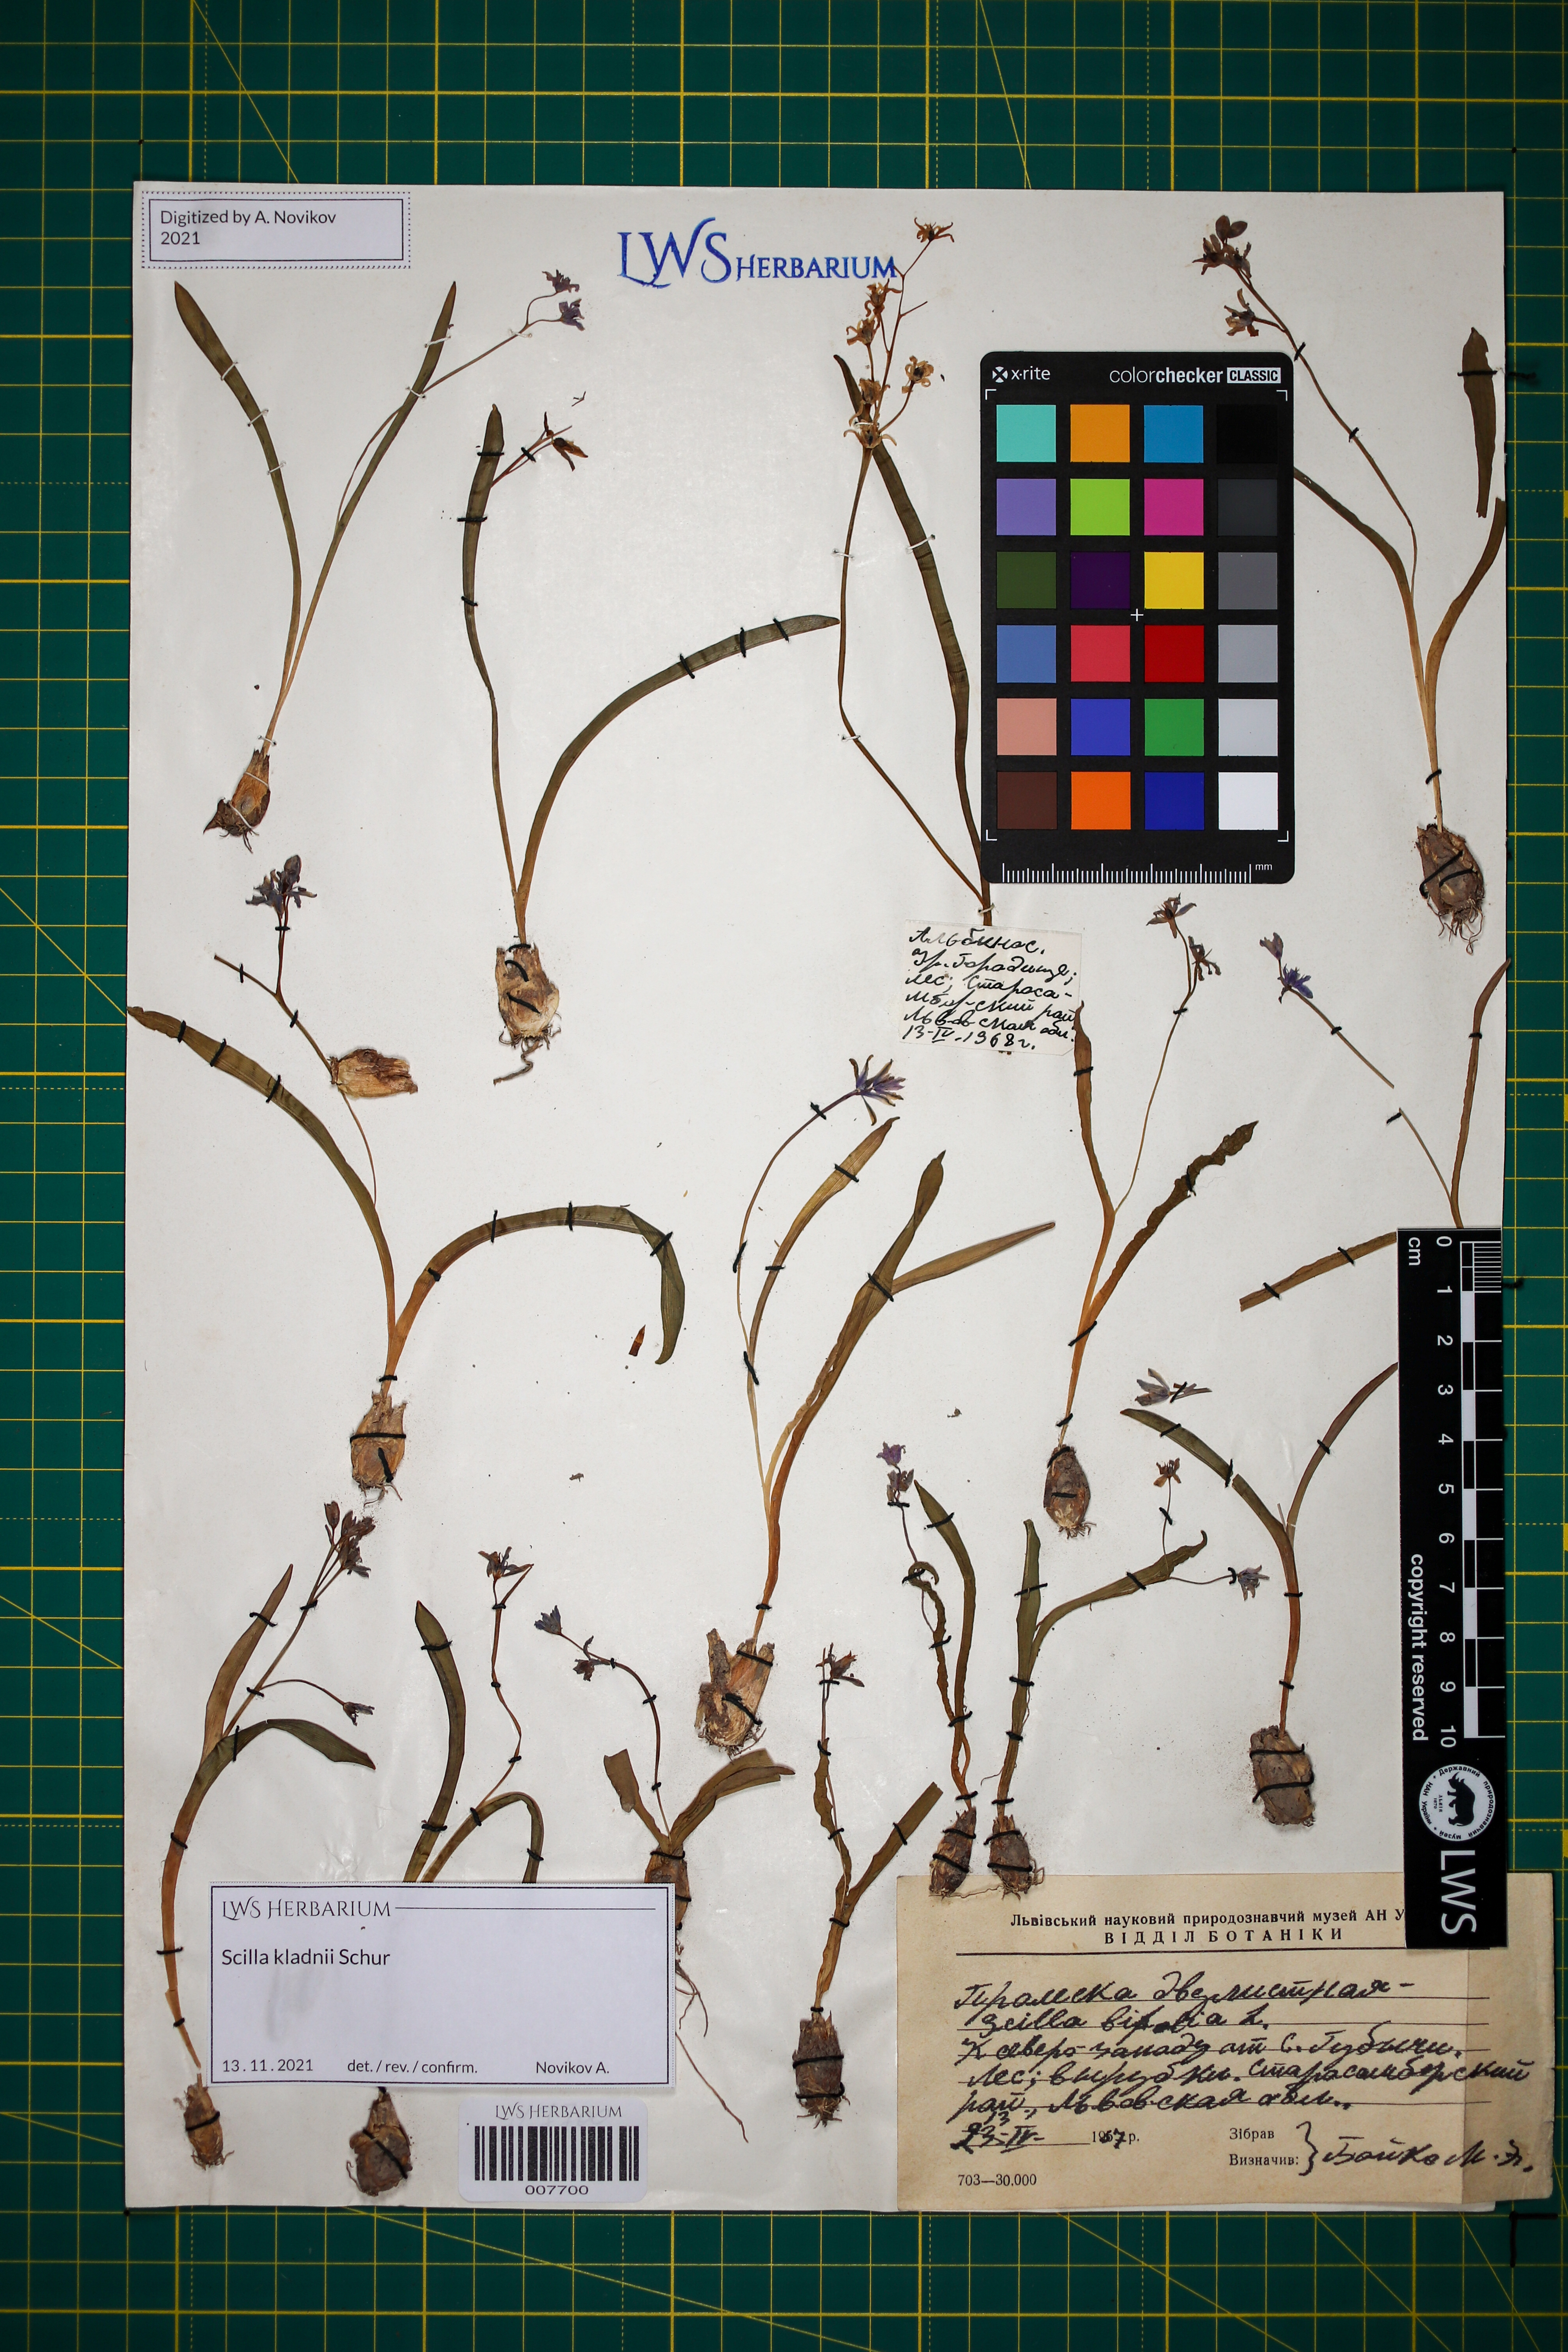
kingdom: Plantae
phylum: Tracheophyta
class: Liliopsida
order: Asparagales
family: Asparagaceae
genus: Scilla
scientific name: Scilla kladnii
